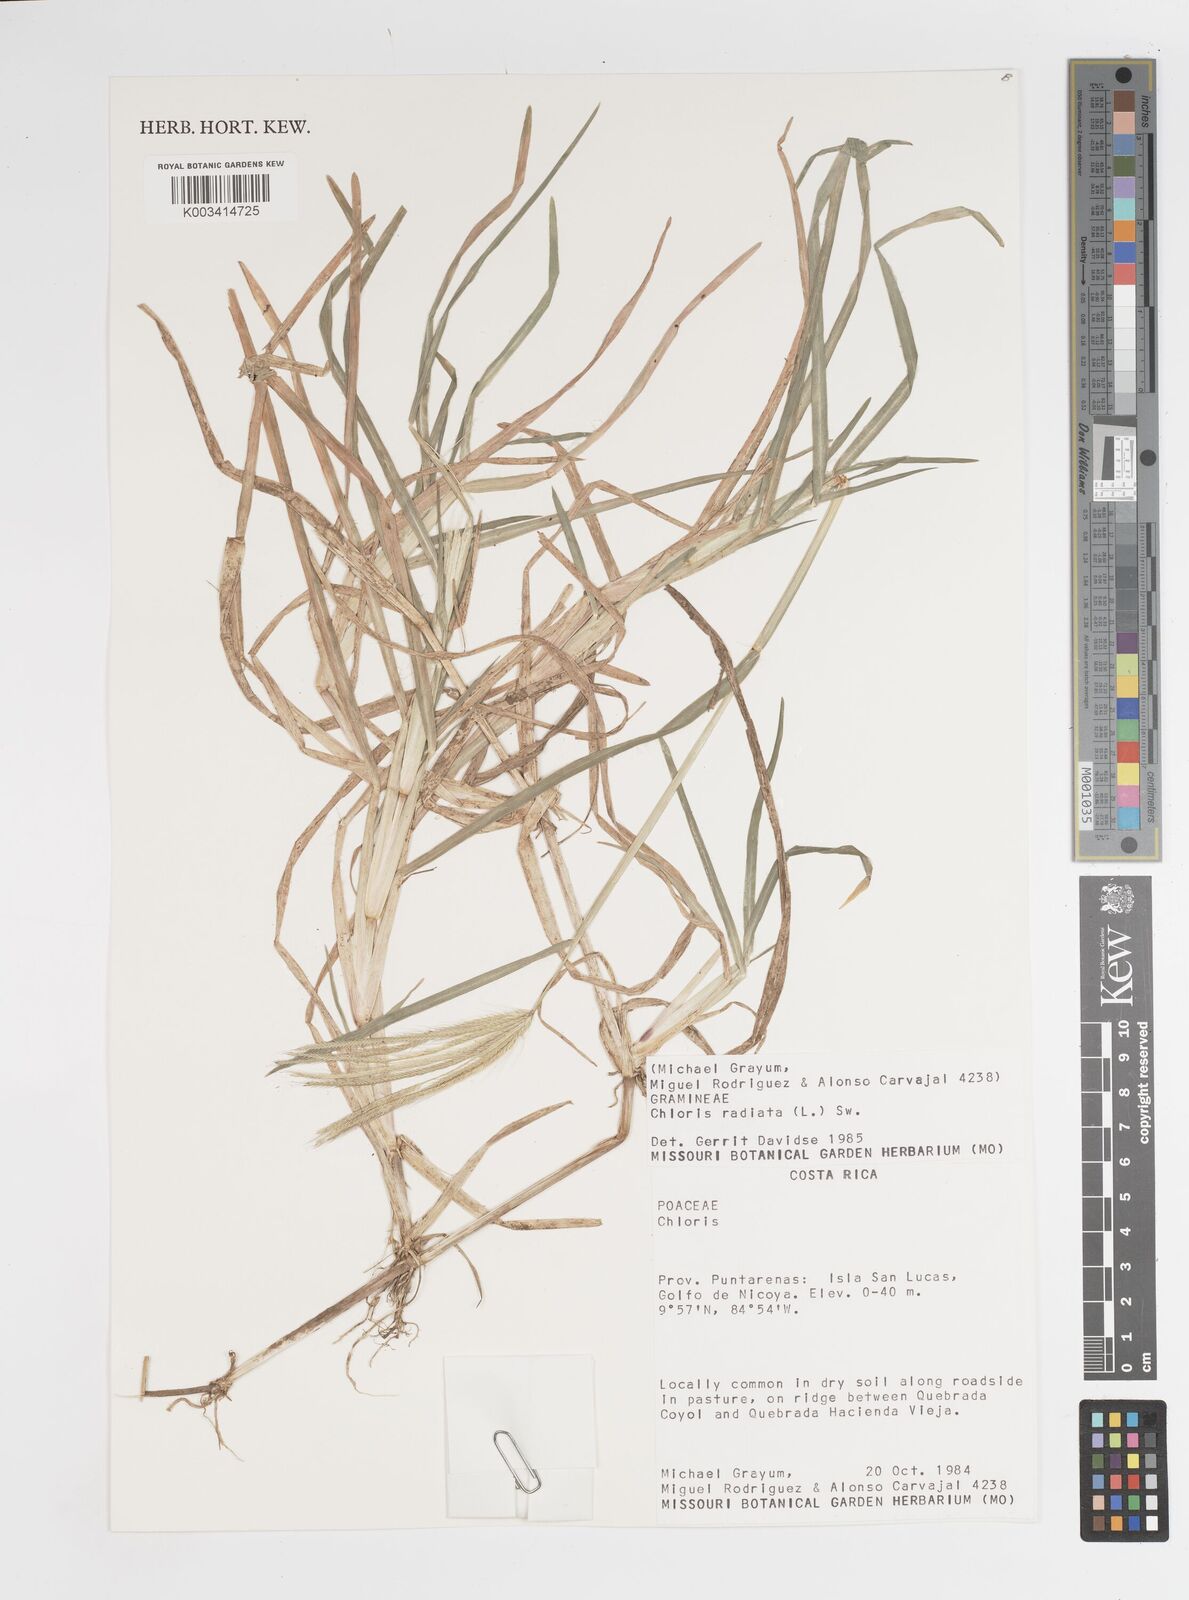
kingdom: Plantae
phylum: Tracheophyta
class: Liliopsida
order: Poales
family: Poaceae
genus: Chloris
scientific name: Chloris radiata
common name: Radiate fingergrass
